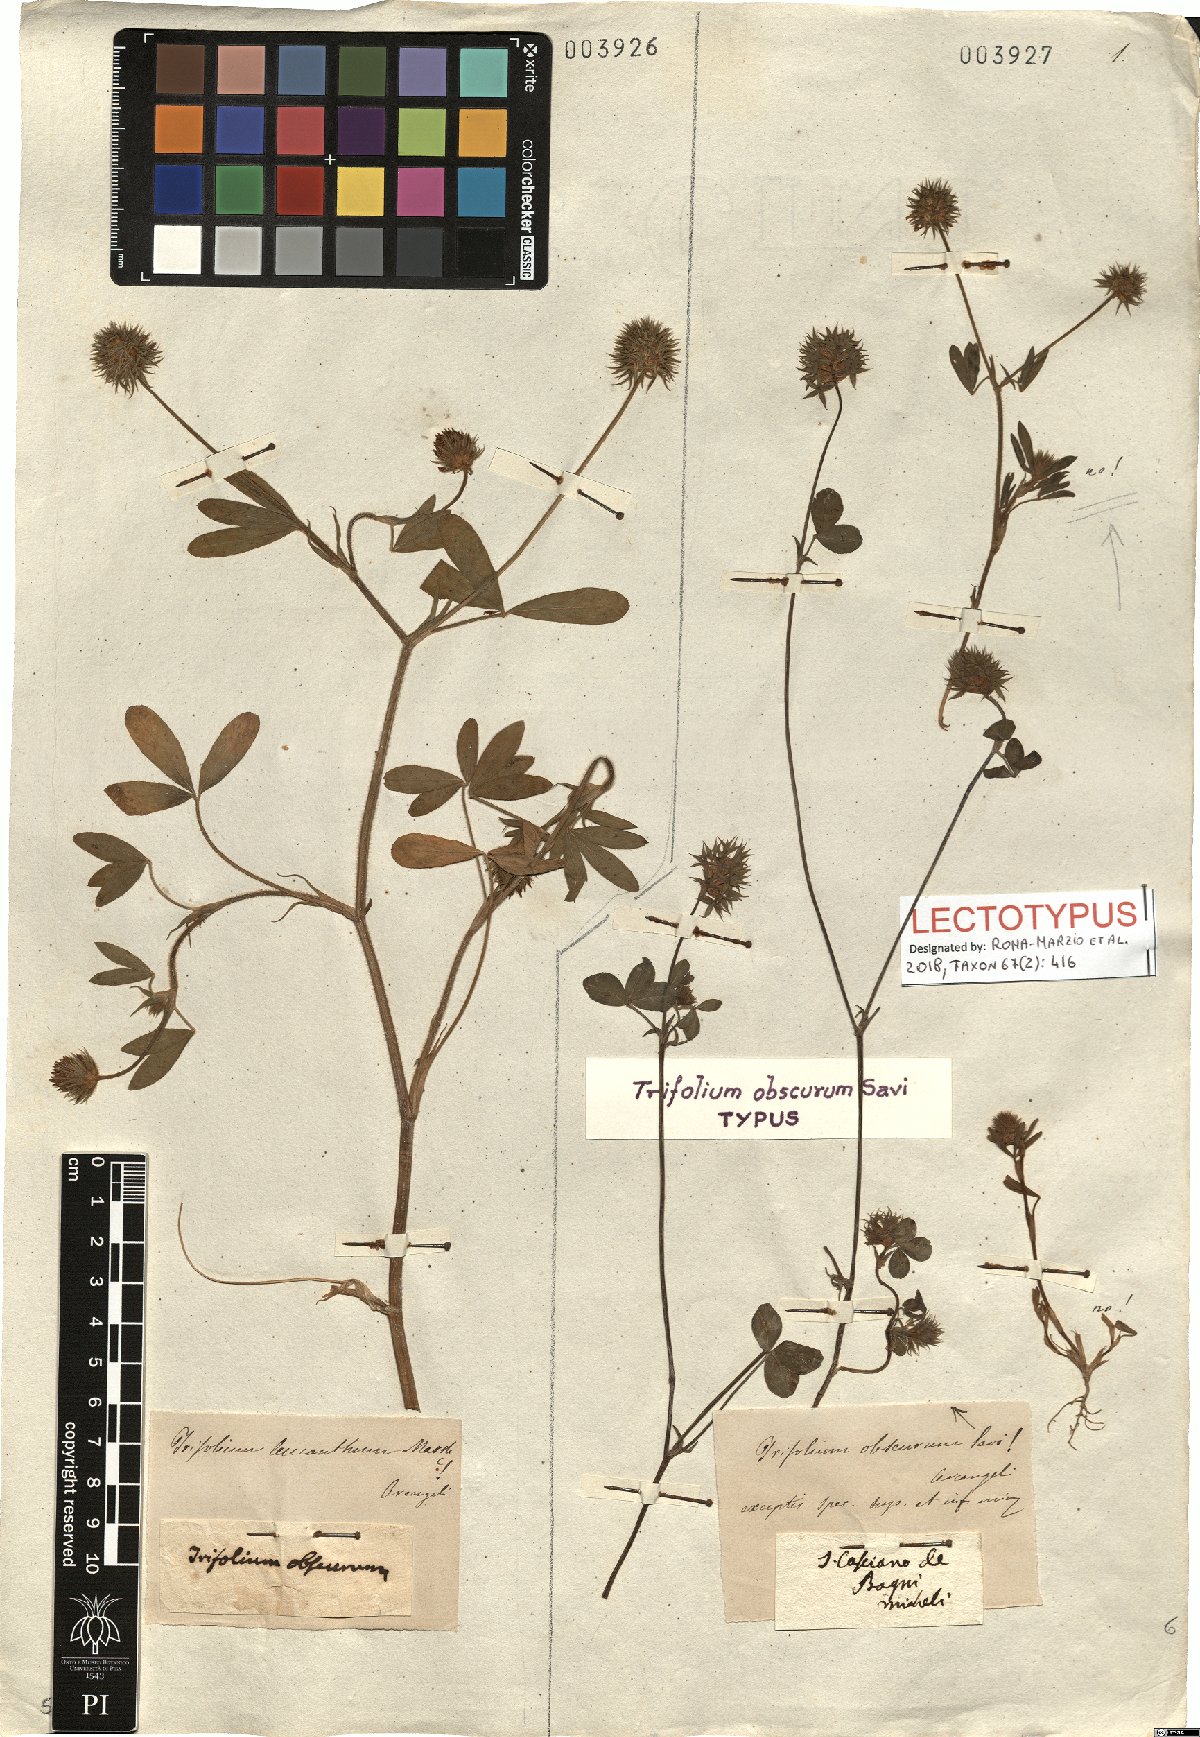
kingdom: Plantae
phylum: Tracheophyta
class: Magnoliopsida
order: Fabales
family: Fabaceae
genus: Trifolium
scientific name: Trifolium obscurum
